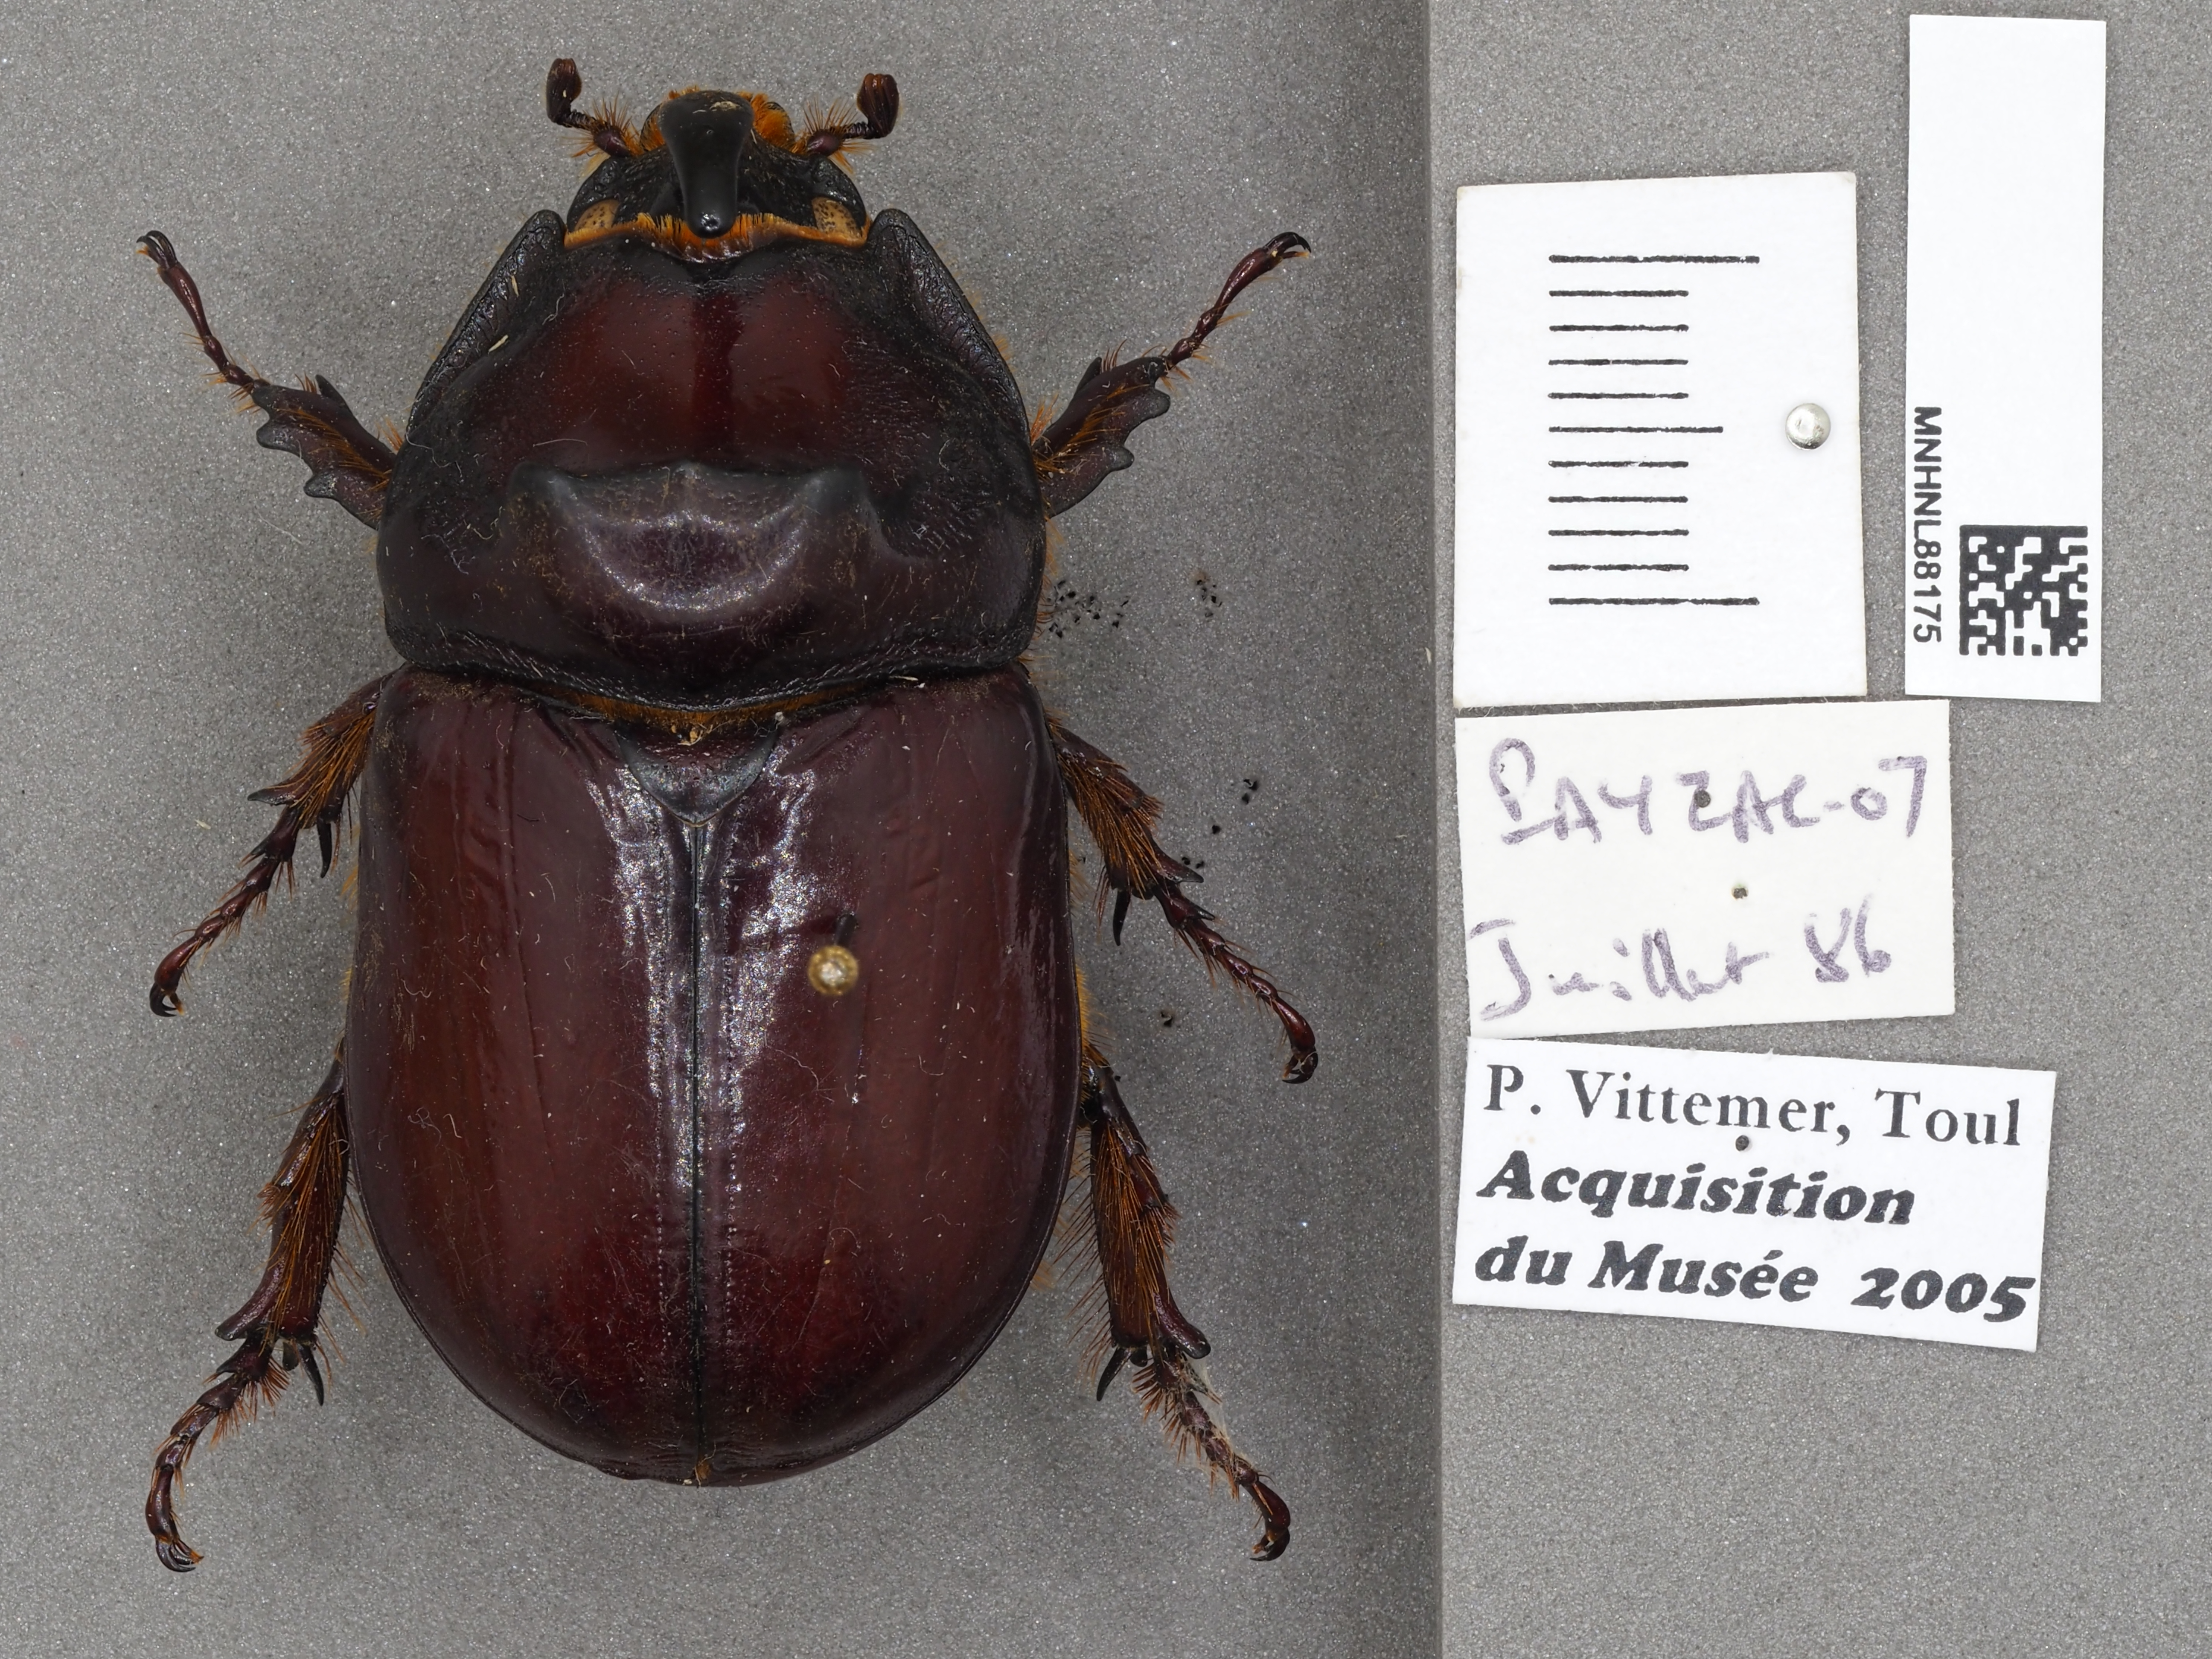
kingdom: Animalia
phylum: Arthropoda
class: Insecta
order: Coleoptera
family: Scarabaeidae
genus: Oryctes
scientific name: Oryctes nasicornis
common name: European rhinoceros beetle
